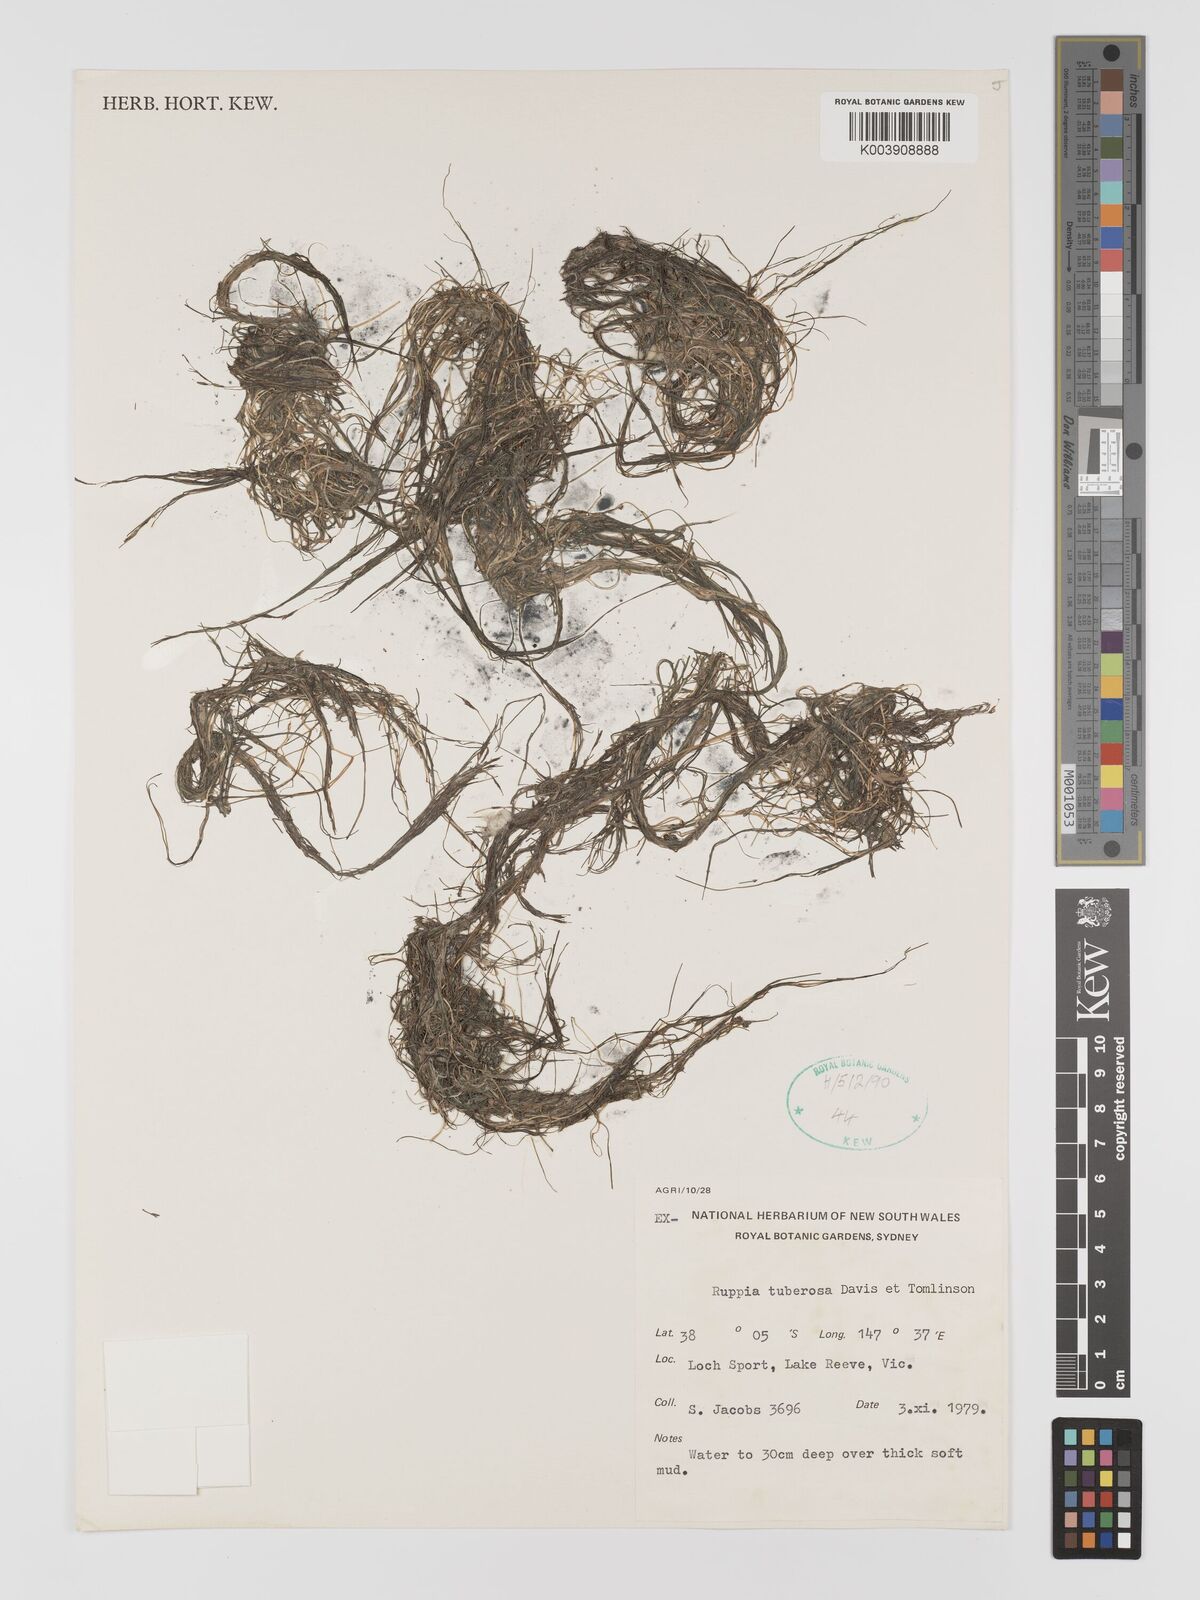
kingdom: Plantae
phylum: Tracheophyta
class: Liliopsida
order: Alismatales
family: Ruppiaceae
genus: Ruppia
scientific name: Ruppia tuberosa
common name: Species code: rt
